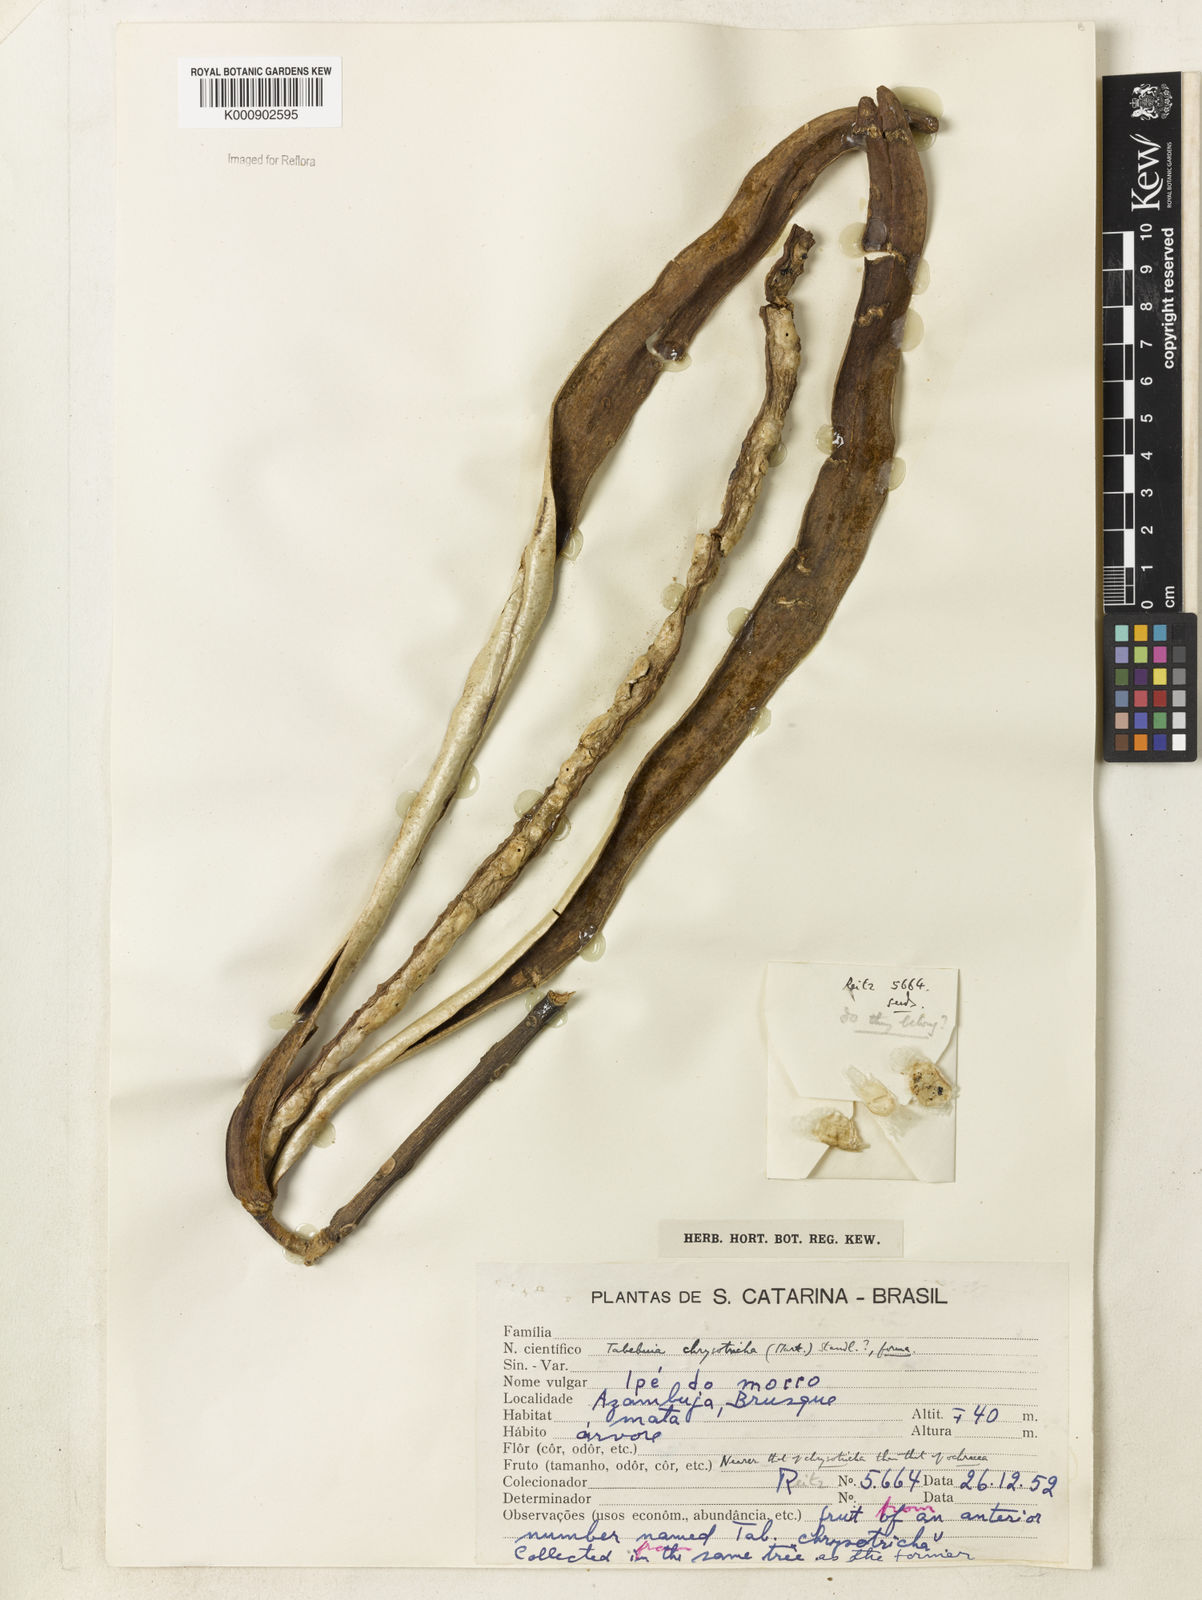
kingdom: Plantae
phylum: Tracheophyta
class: Magnoliopsida
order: Lamiales
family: Bignoniaceae
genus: Handroanthus
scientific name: Handroanthus chrysotrichus
